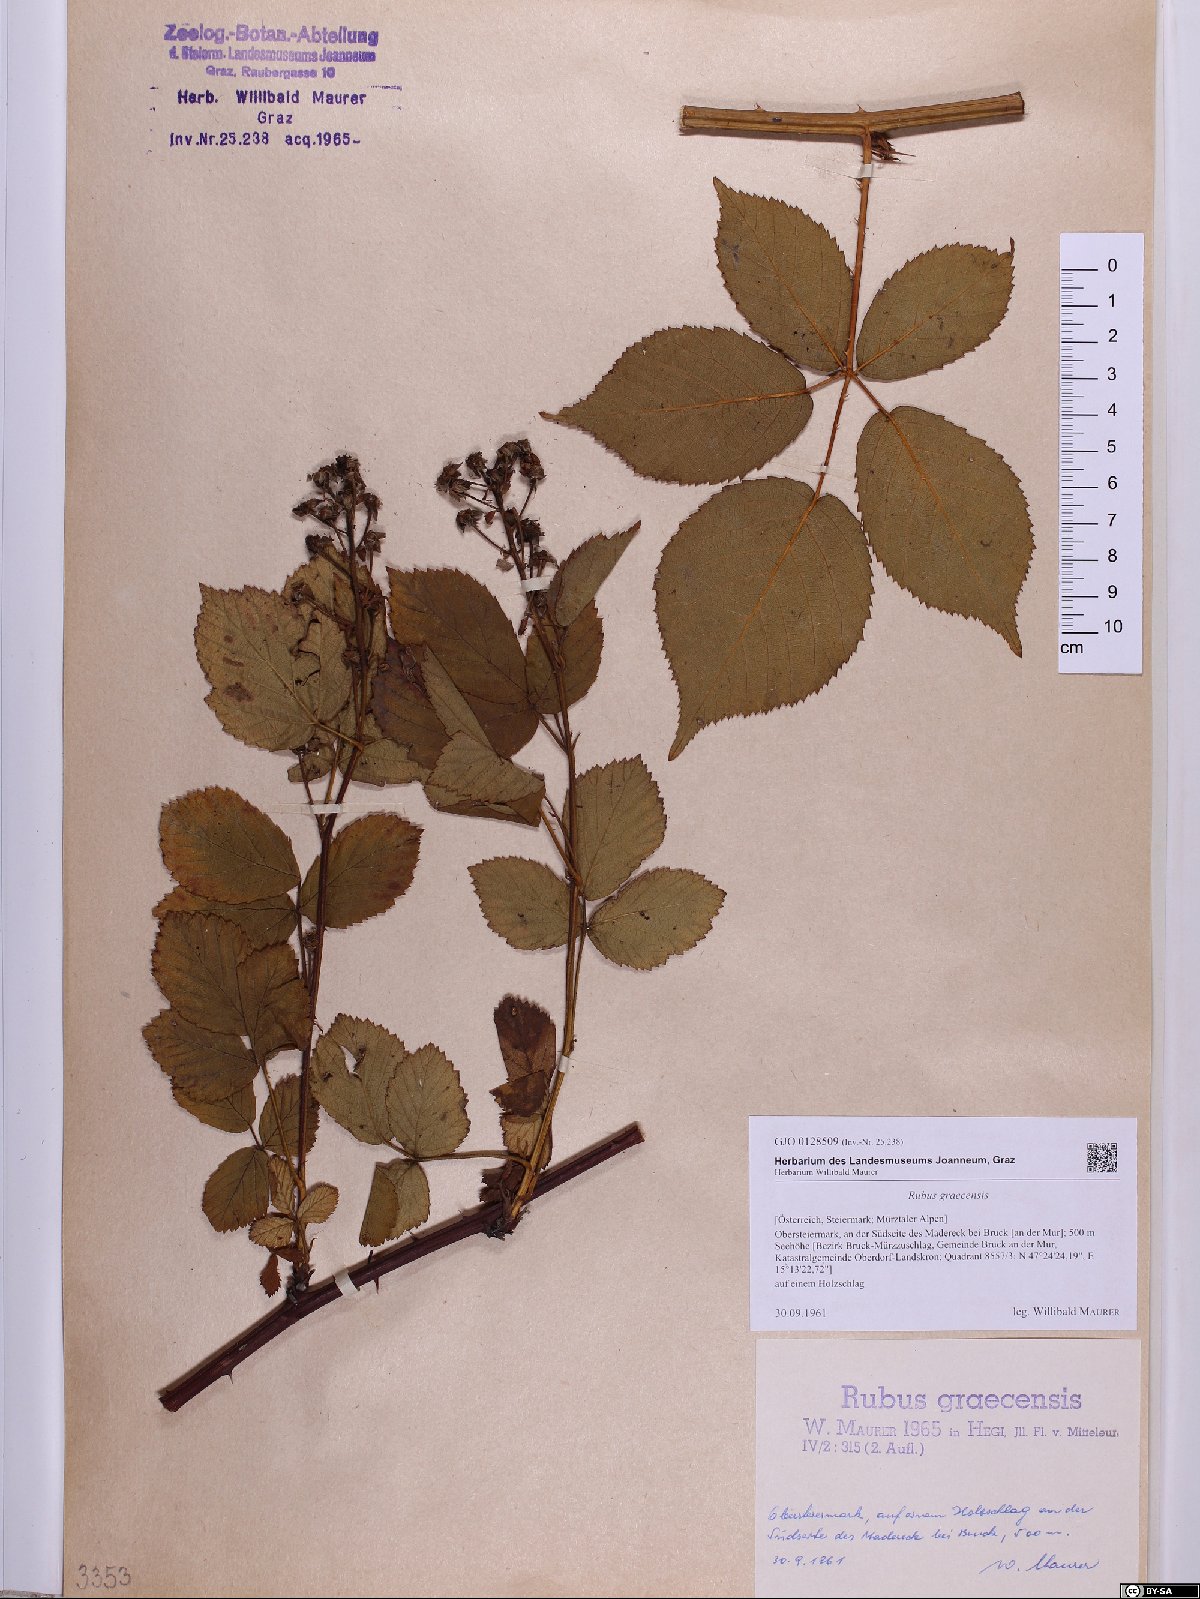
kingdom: Plantae
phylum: Tracheophyta
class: Magnoliopsida
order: Rosales
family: Rosaceae
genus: Rubus
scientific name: Rubus graecensis
